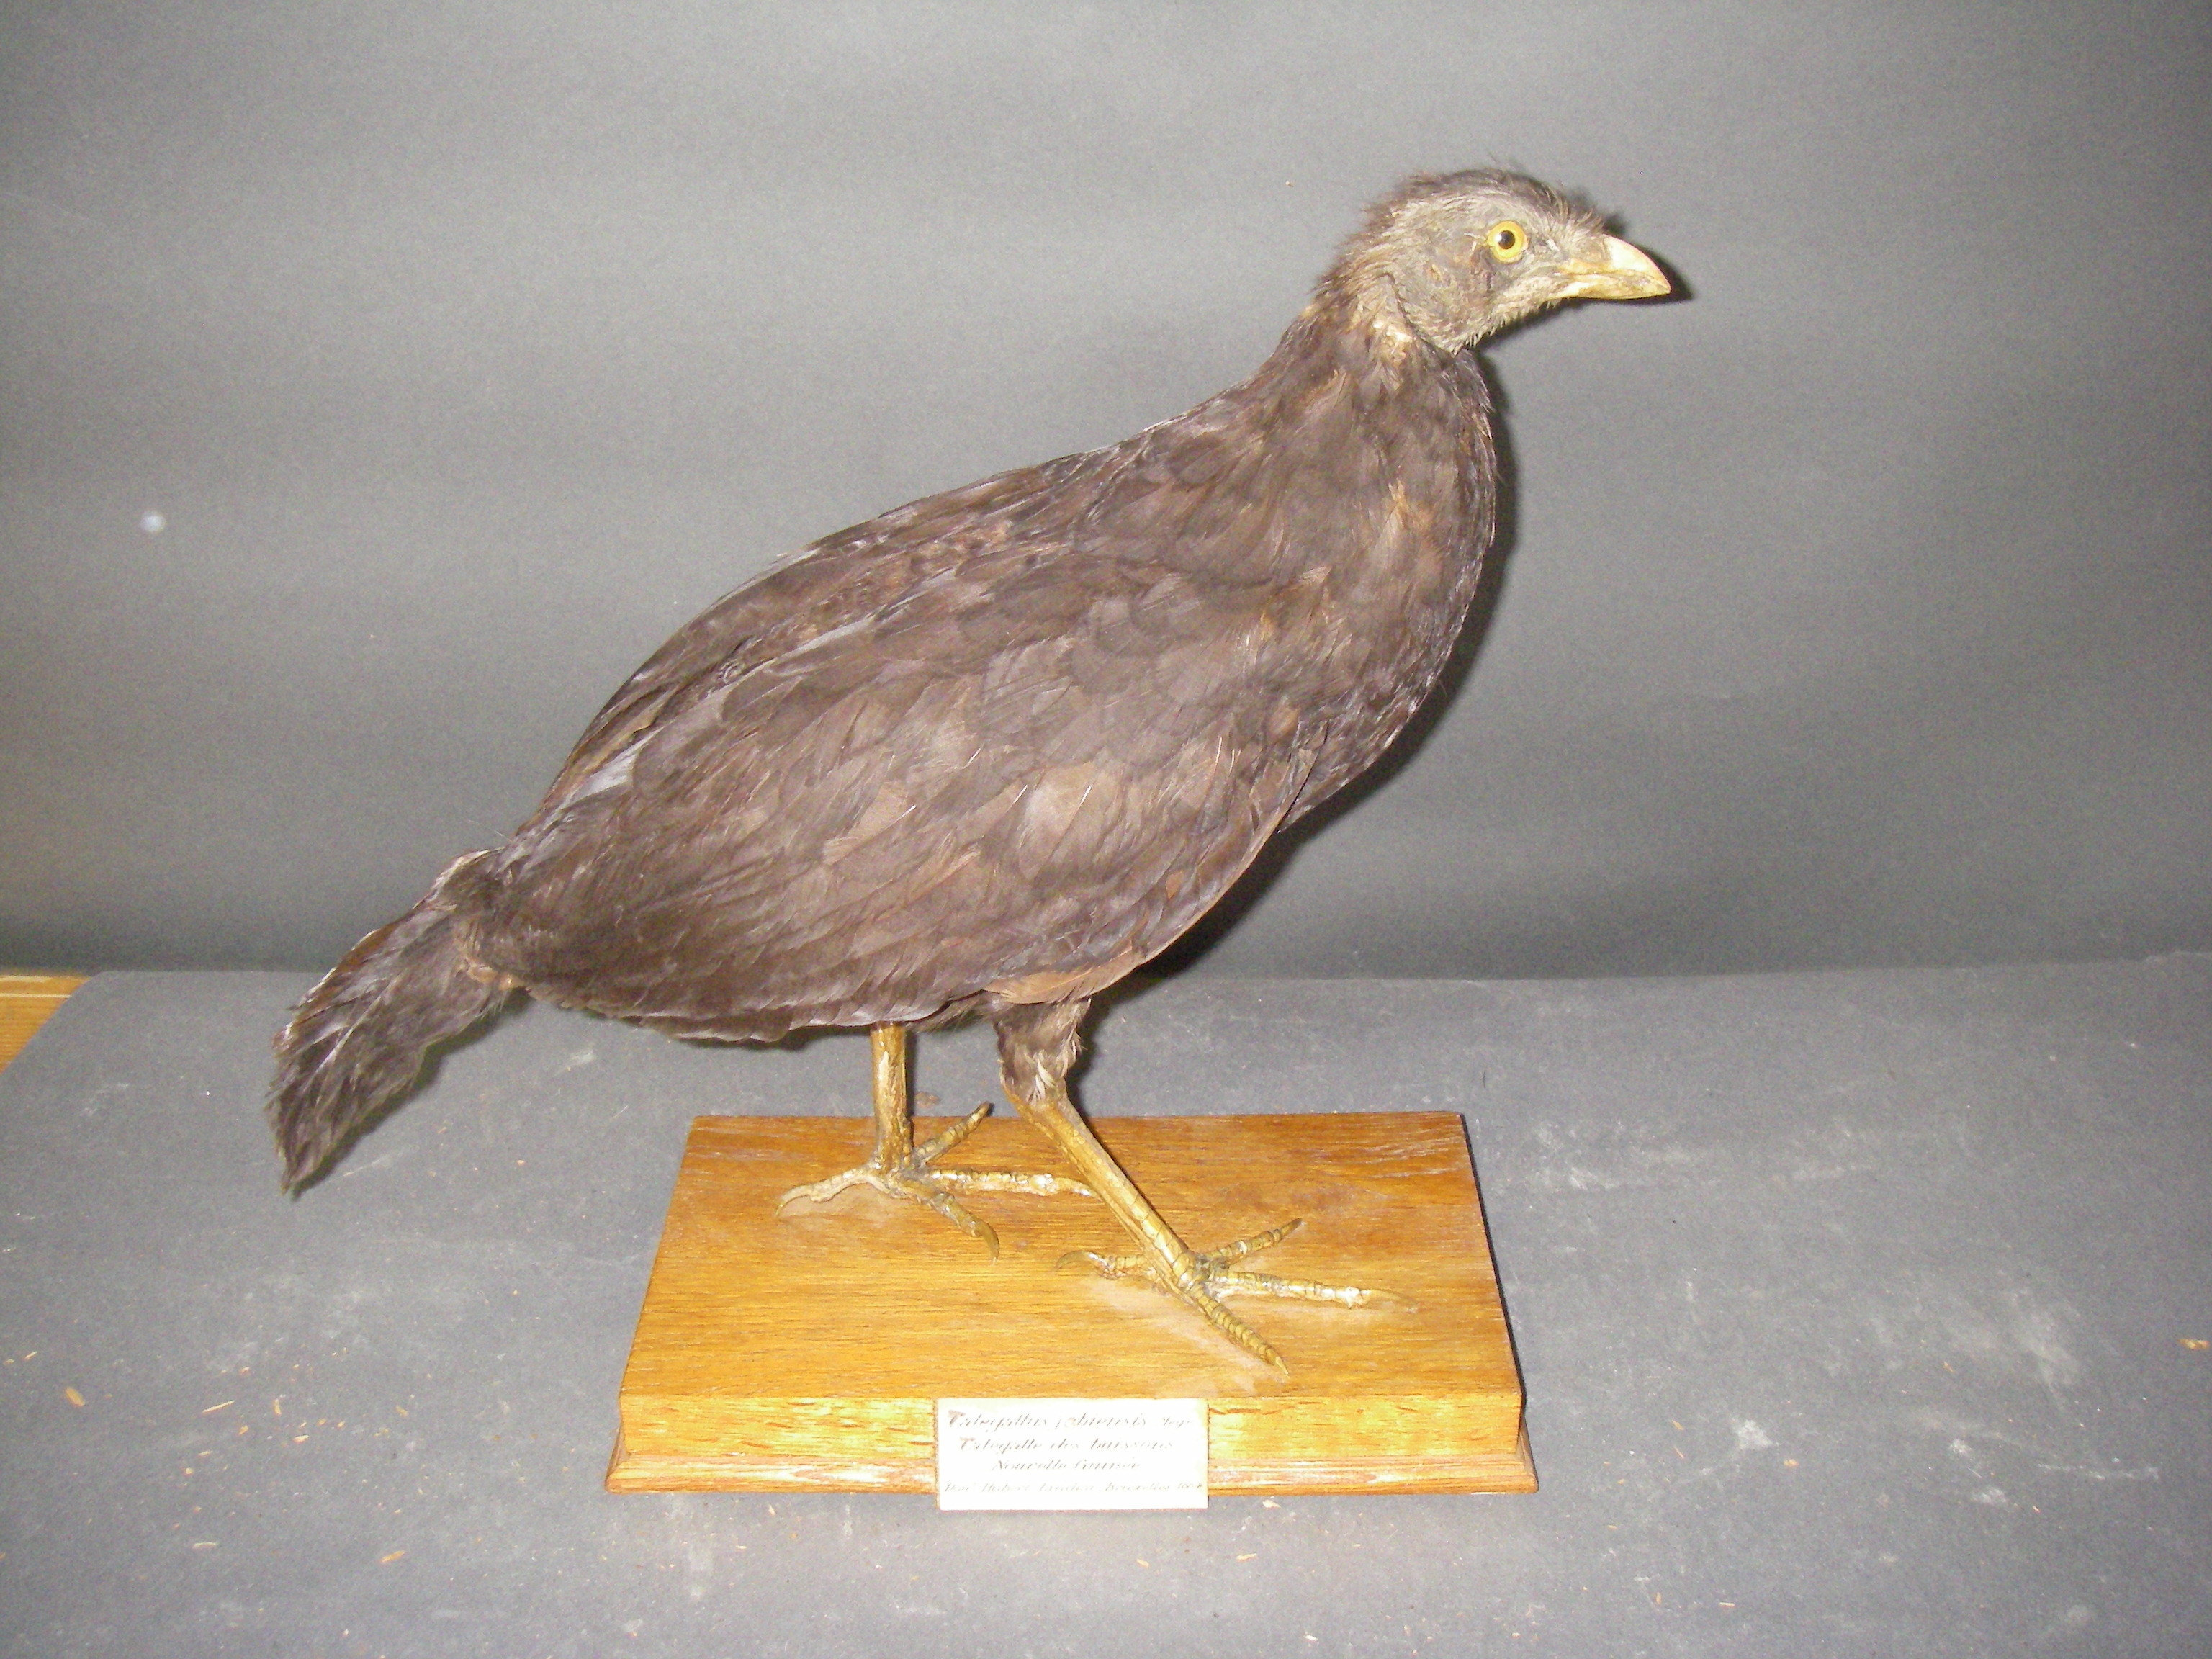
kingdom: Animalia
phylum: Chordata
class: Aves
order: Galliformes
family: Megapodiidae
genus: Talegalla
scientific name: Talegalla jobiensis
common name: Collared brushturkey
